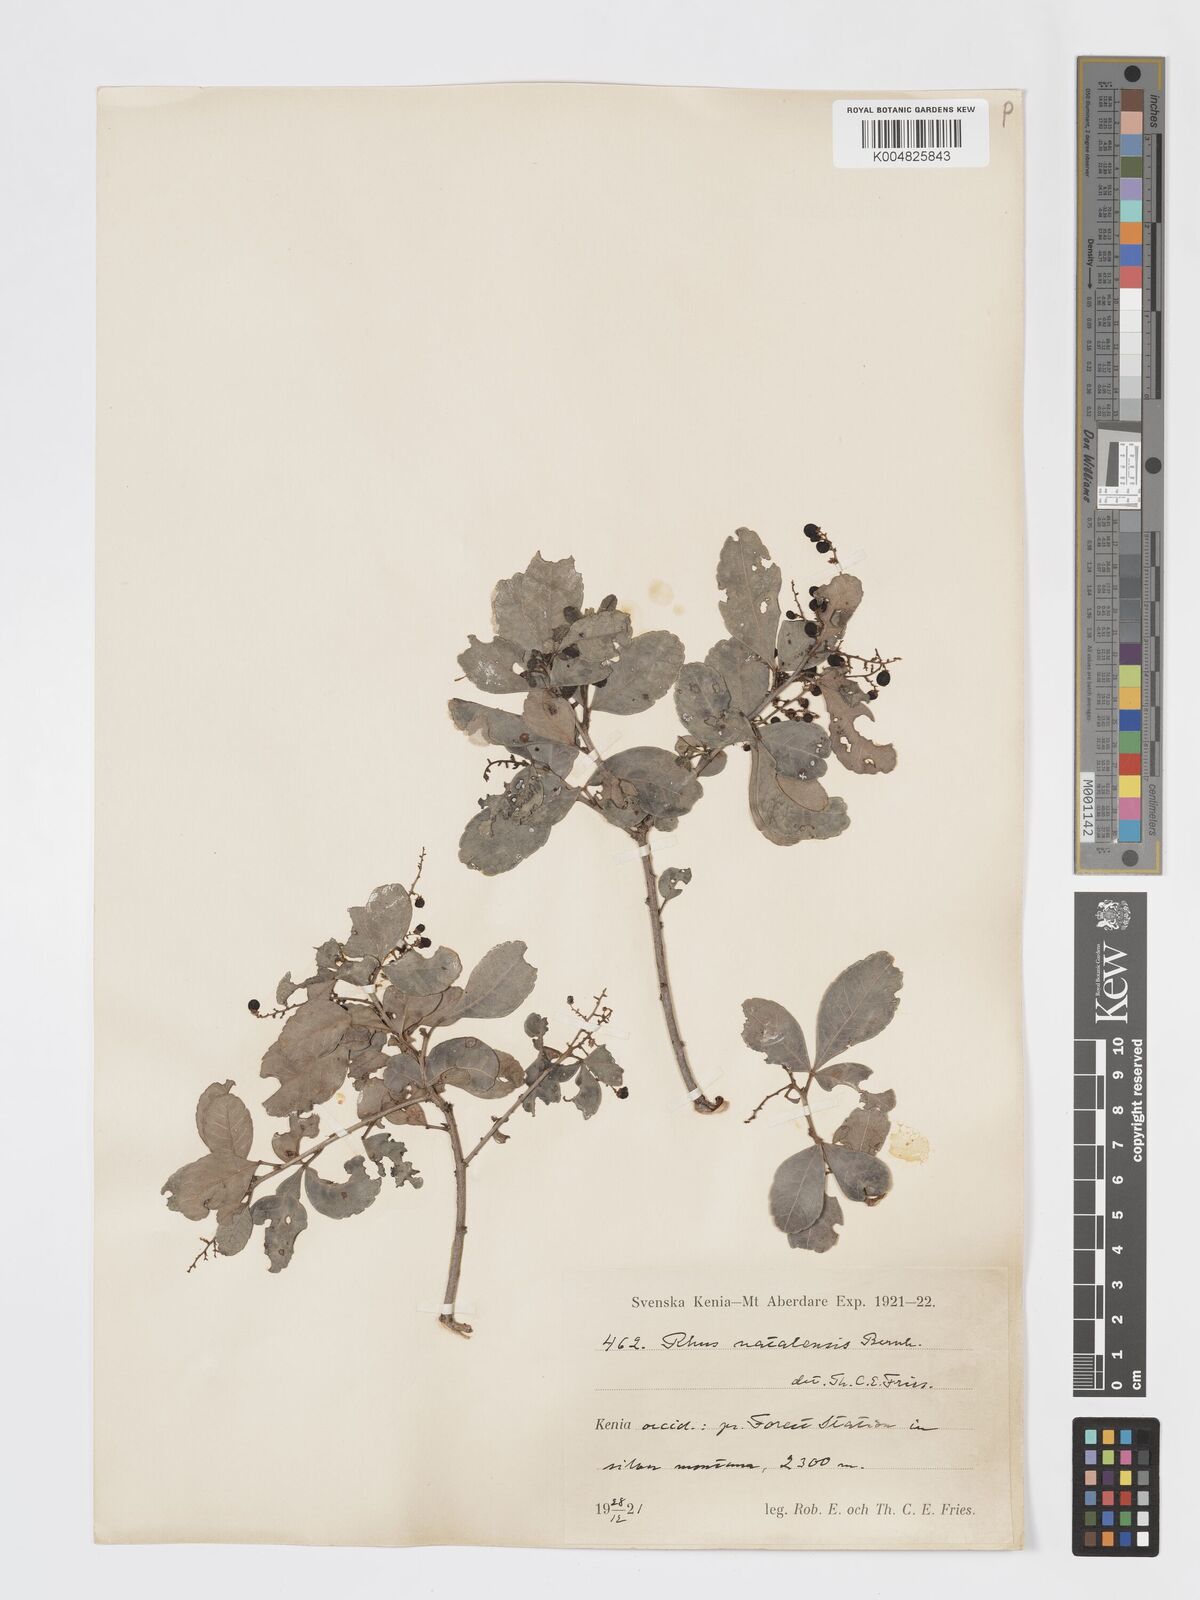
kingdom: Plantae
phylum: Tracheophyta
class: Magnoliopsida
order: Sapindales
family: Anacardiaceae
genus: Searsia
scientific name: Searsia natalensis
